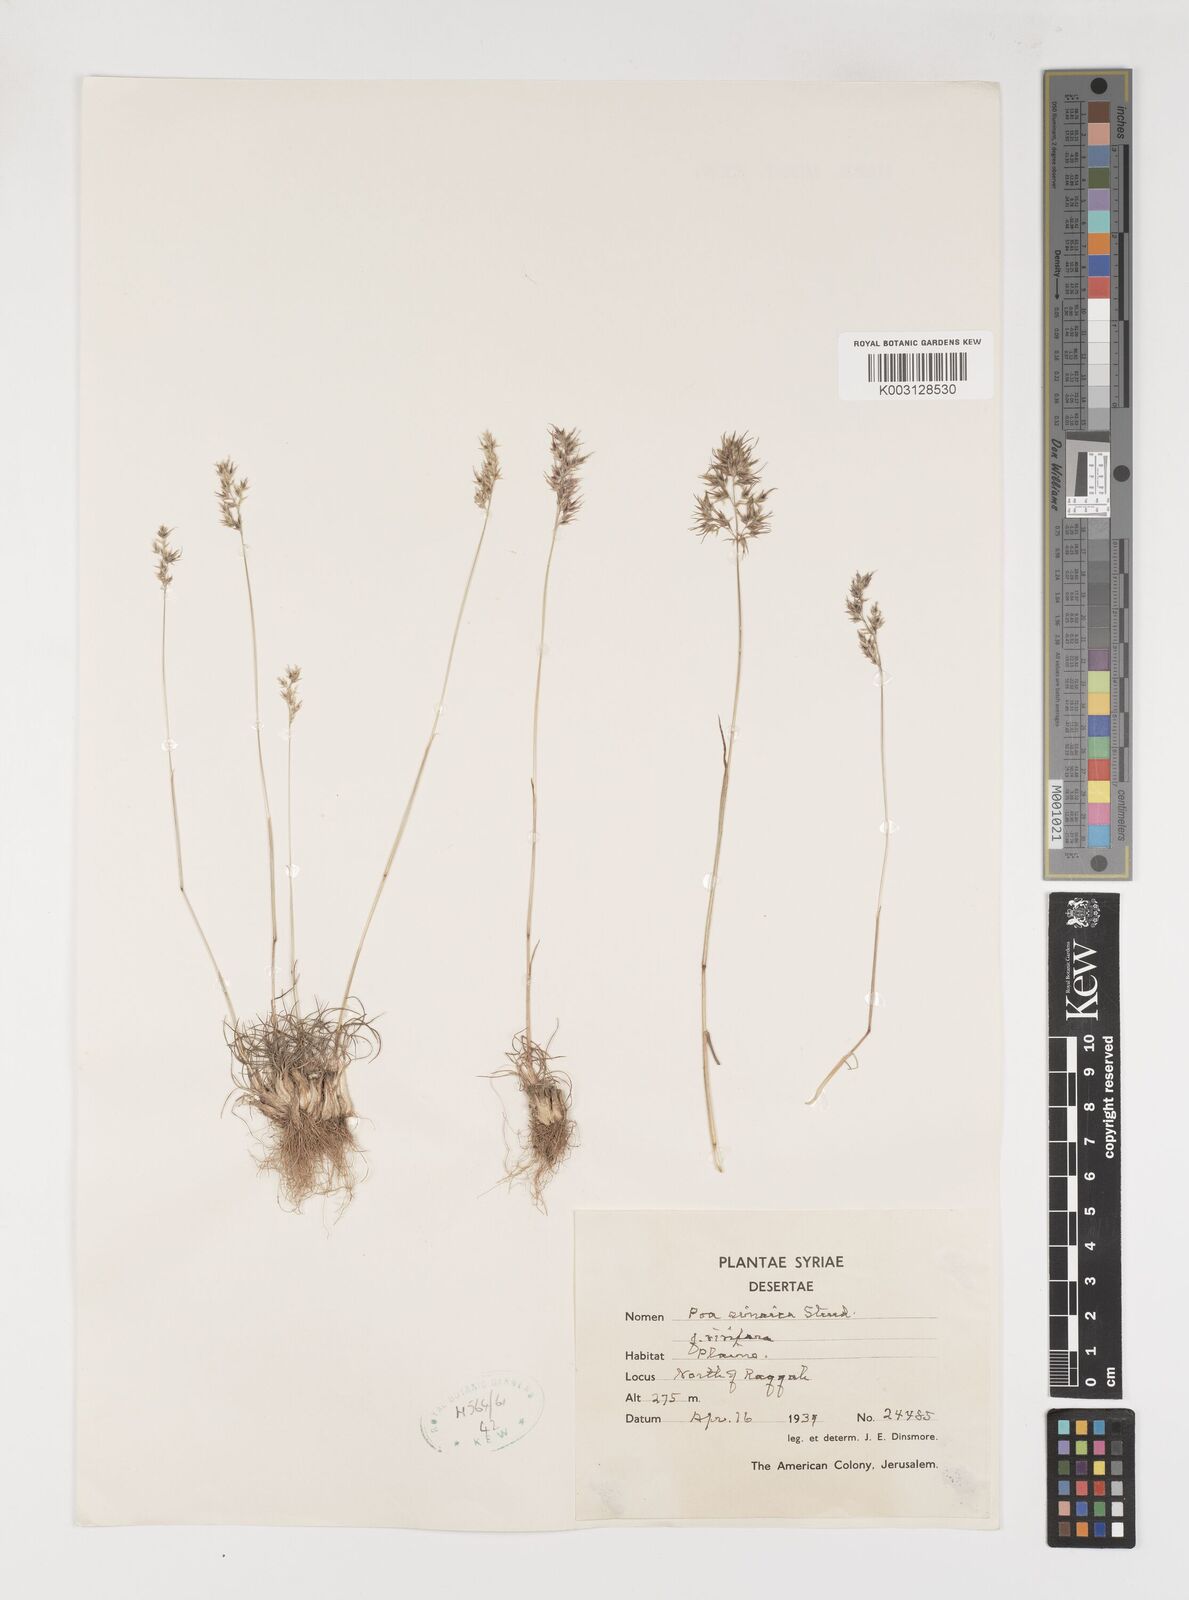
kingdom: Plantae
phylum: Tracheophyta
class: Liliopsida
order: Poales
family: Poaceae
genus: Poa
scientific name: Poa sinaica
